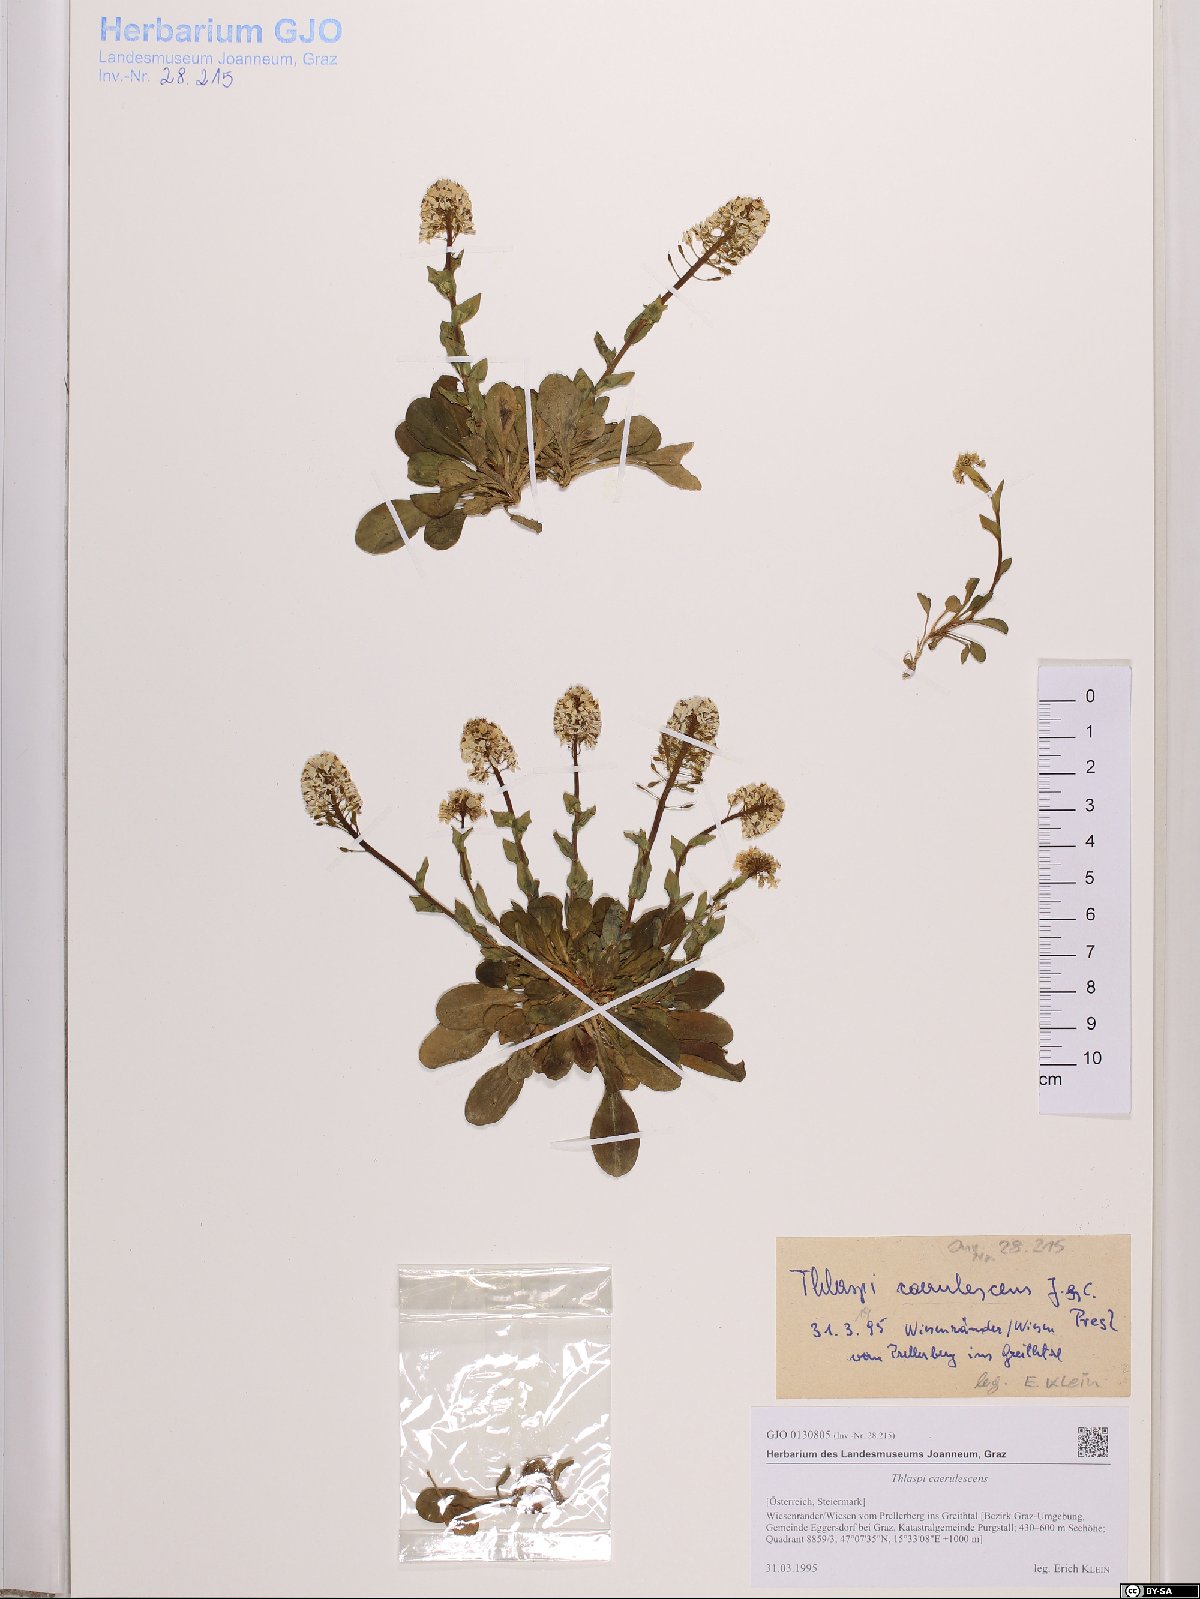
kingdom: Plantae
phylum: Tracheophyta
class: Magnoliopsida
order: Brassicales
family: Brassicaceae
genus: Noccaea
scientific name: Noccaea caerulescens
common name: Alpine pennycress
